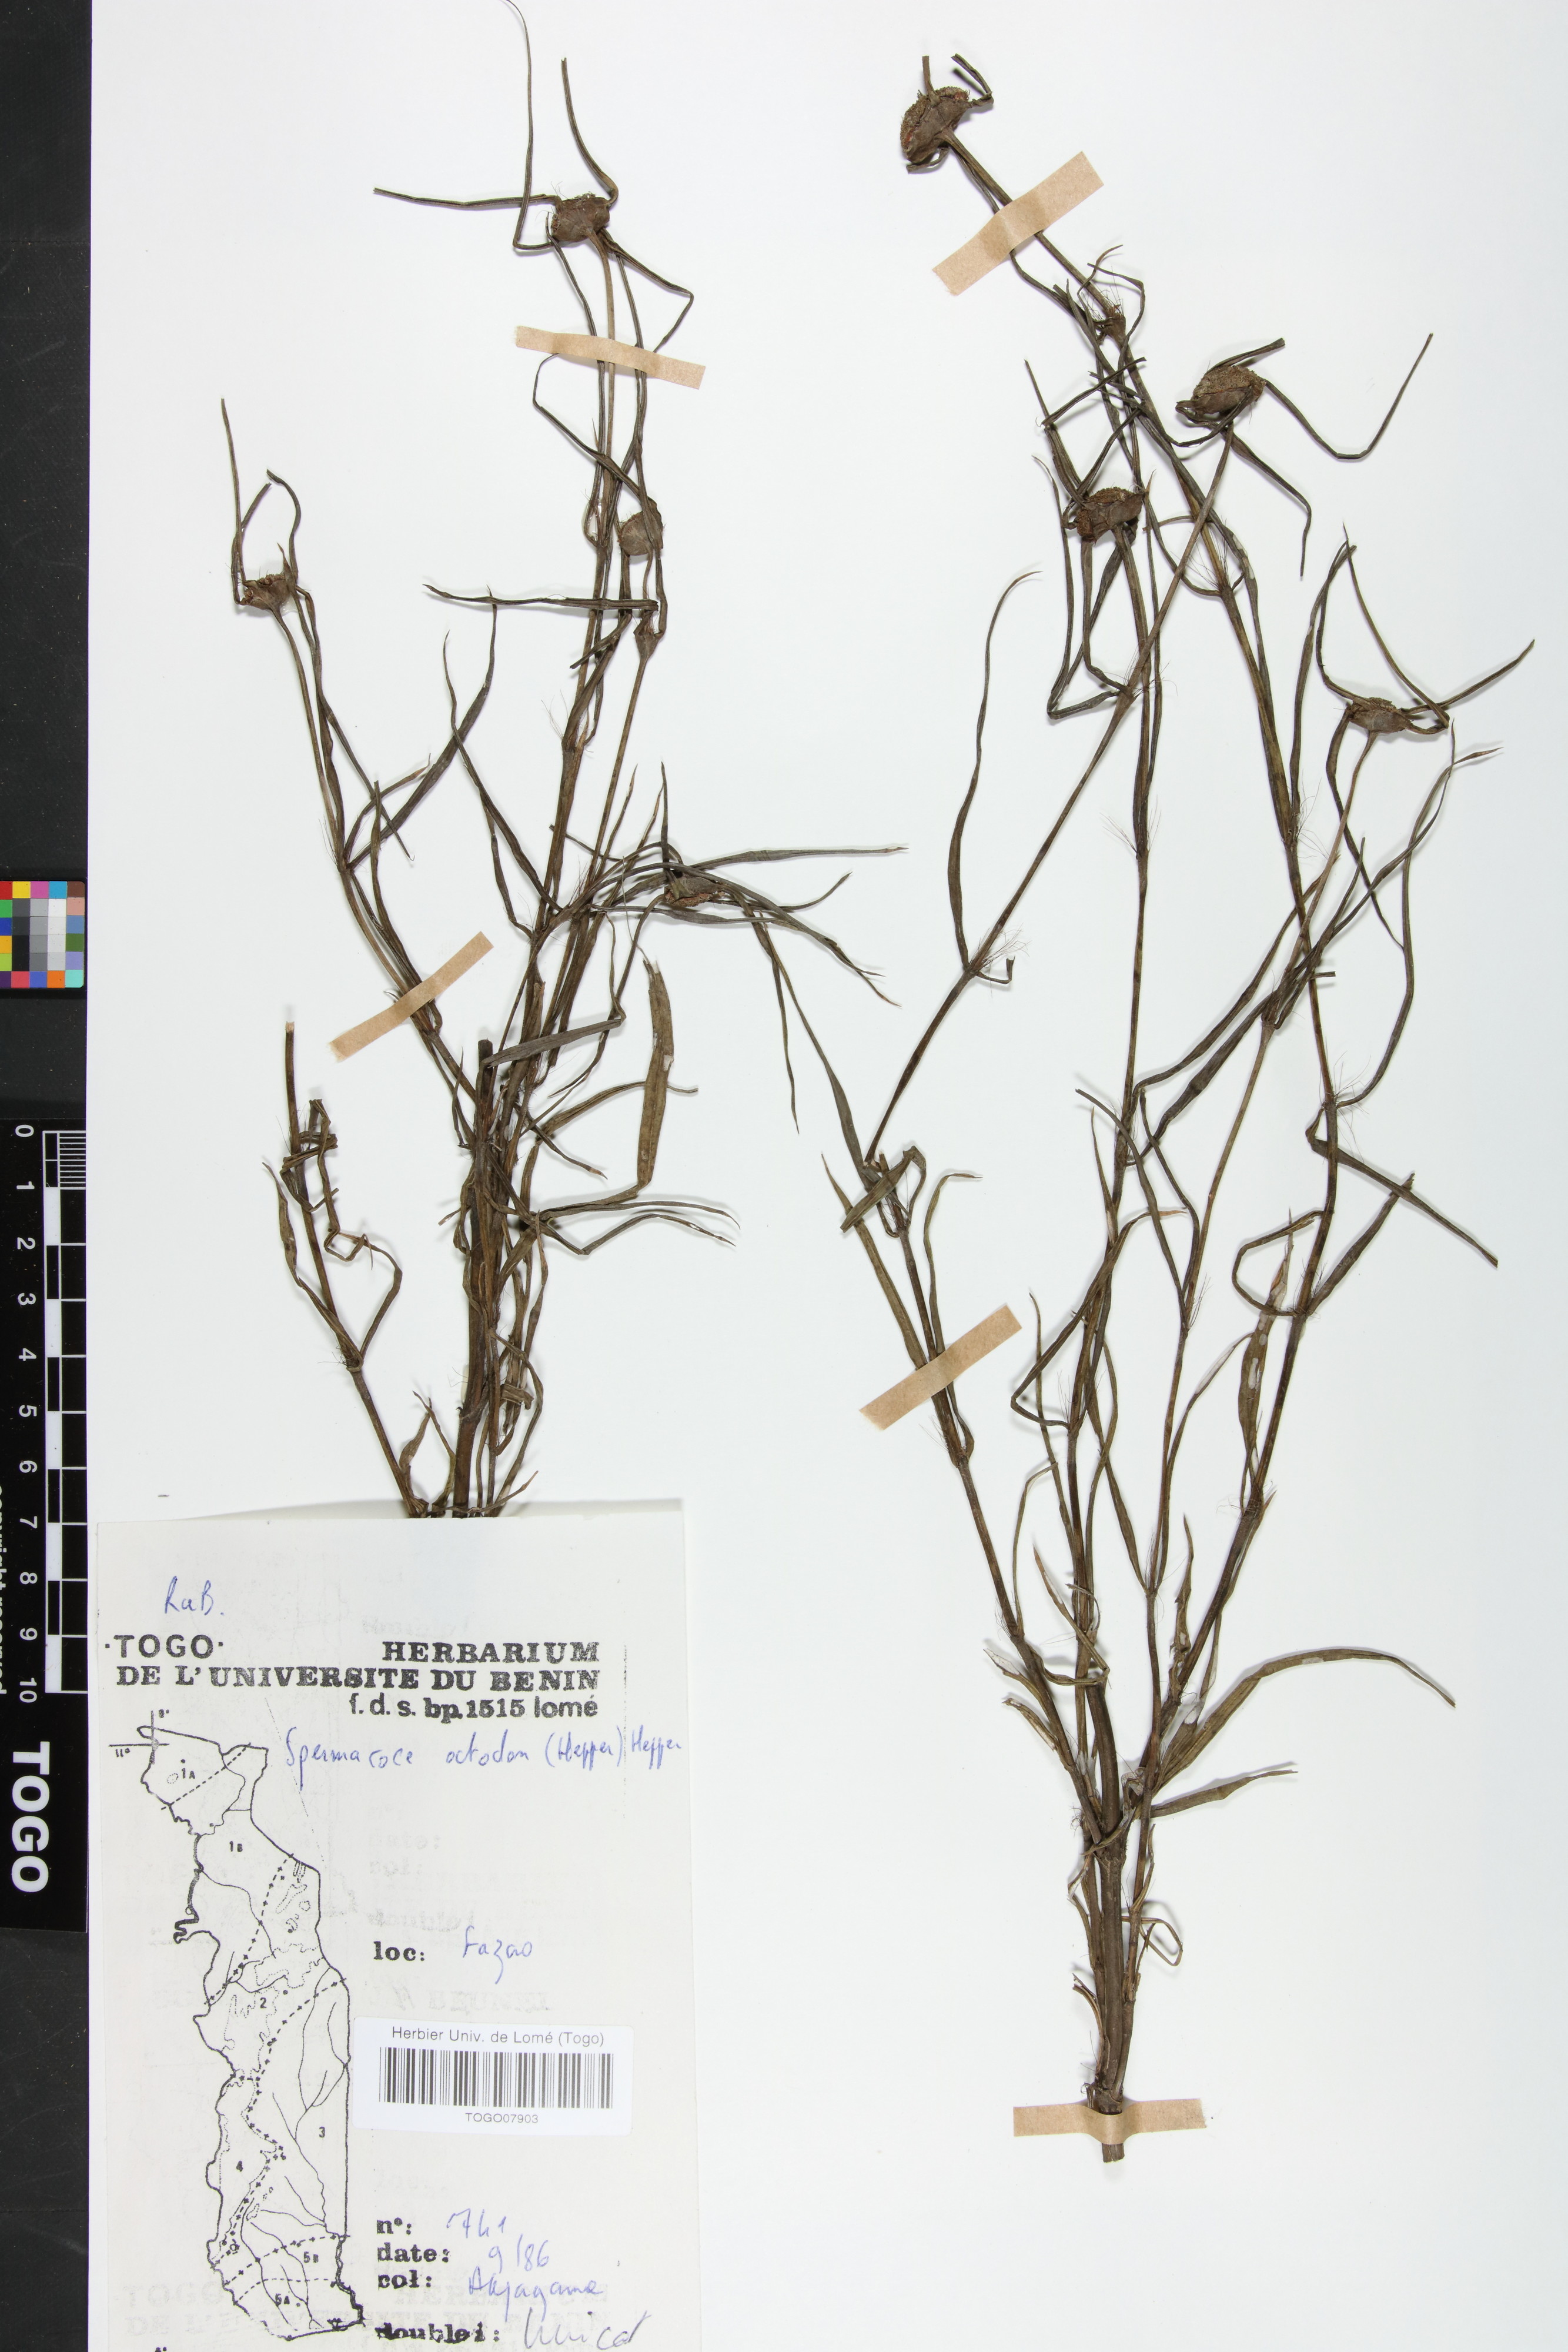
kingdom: Plantae
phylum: Tracheophyta
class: Magnoliopsida
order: Gentianales
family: Rubiaceae
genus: Spermacoce
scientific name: Spermacoce octodon
